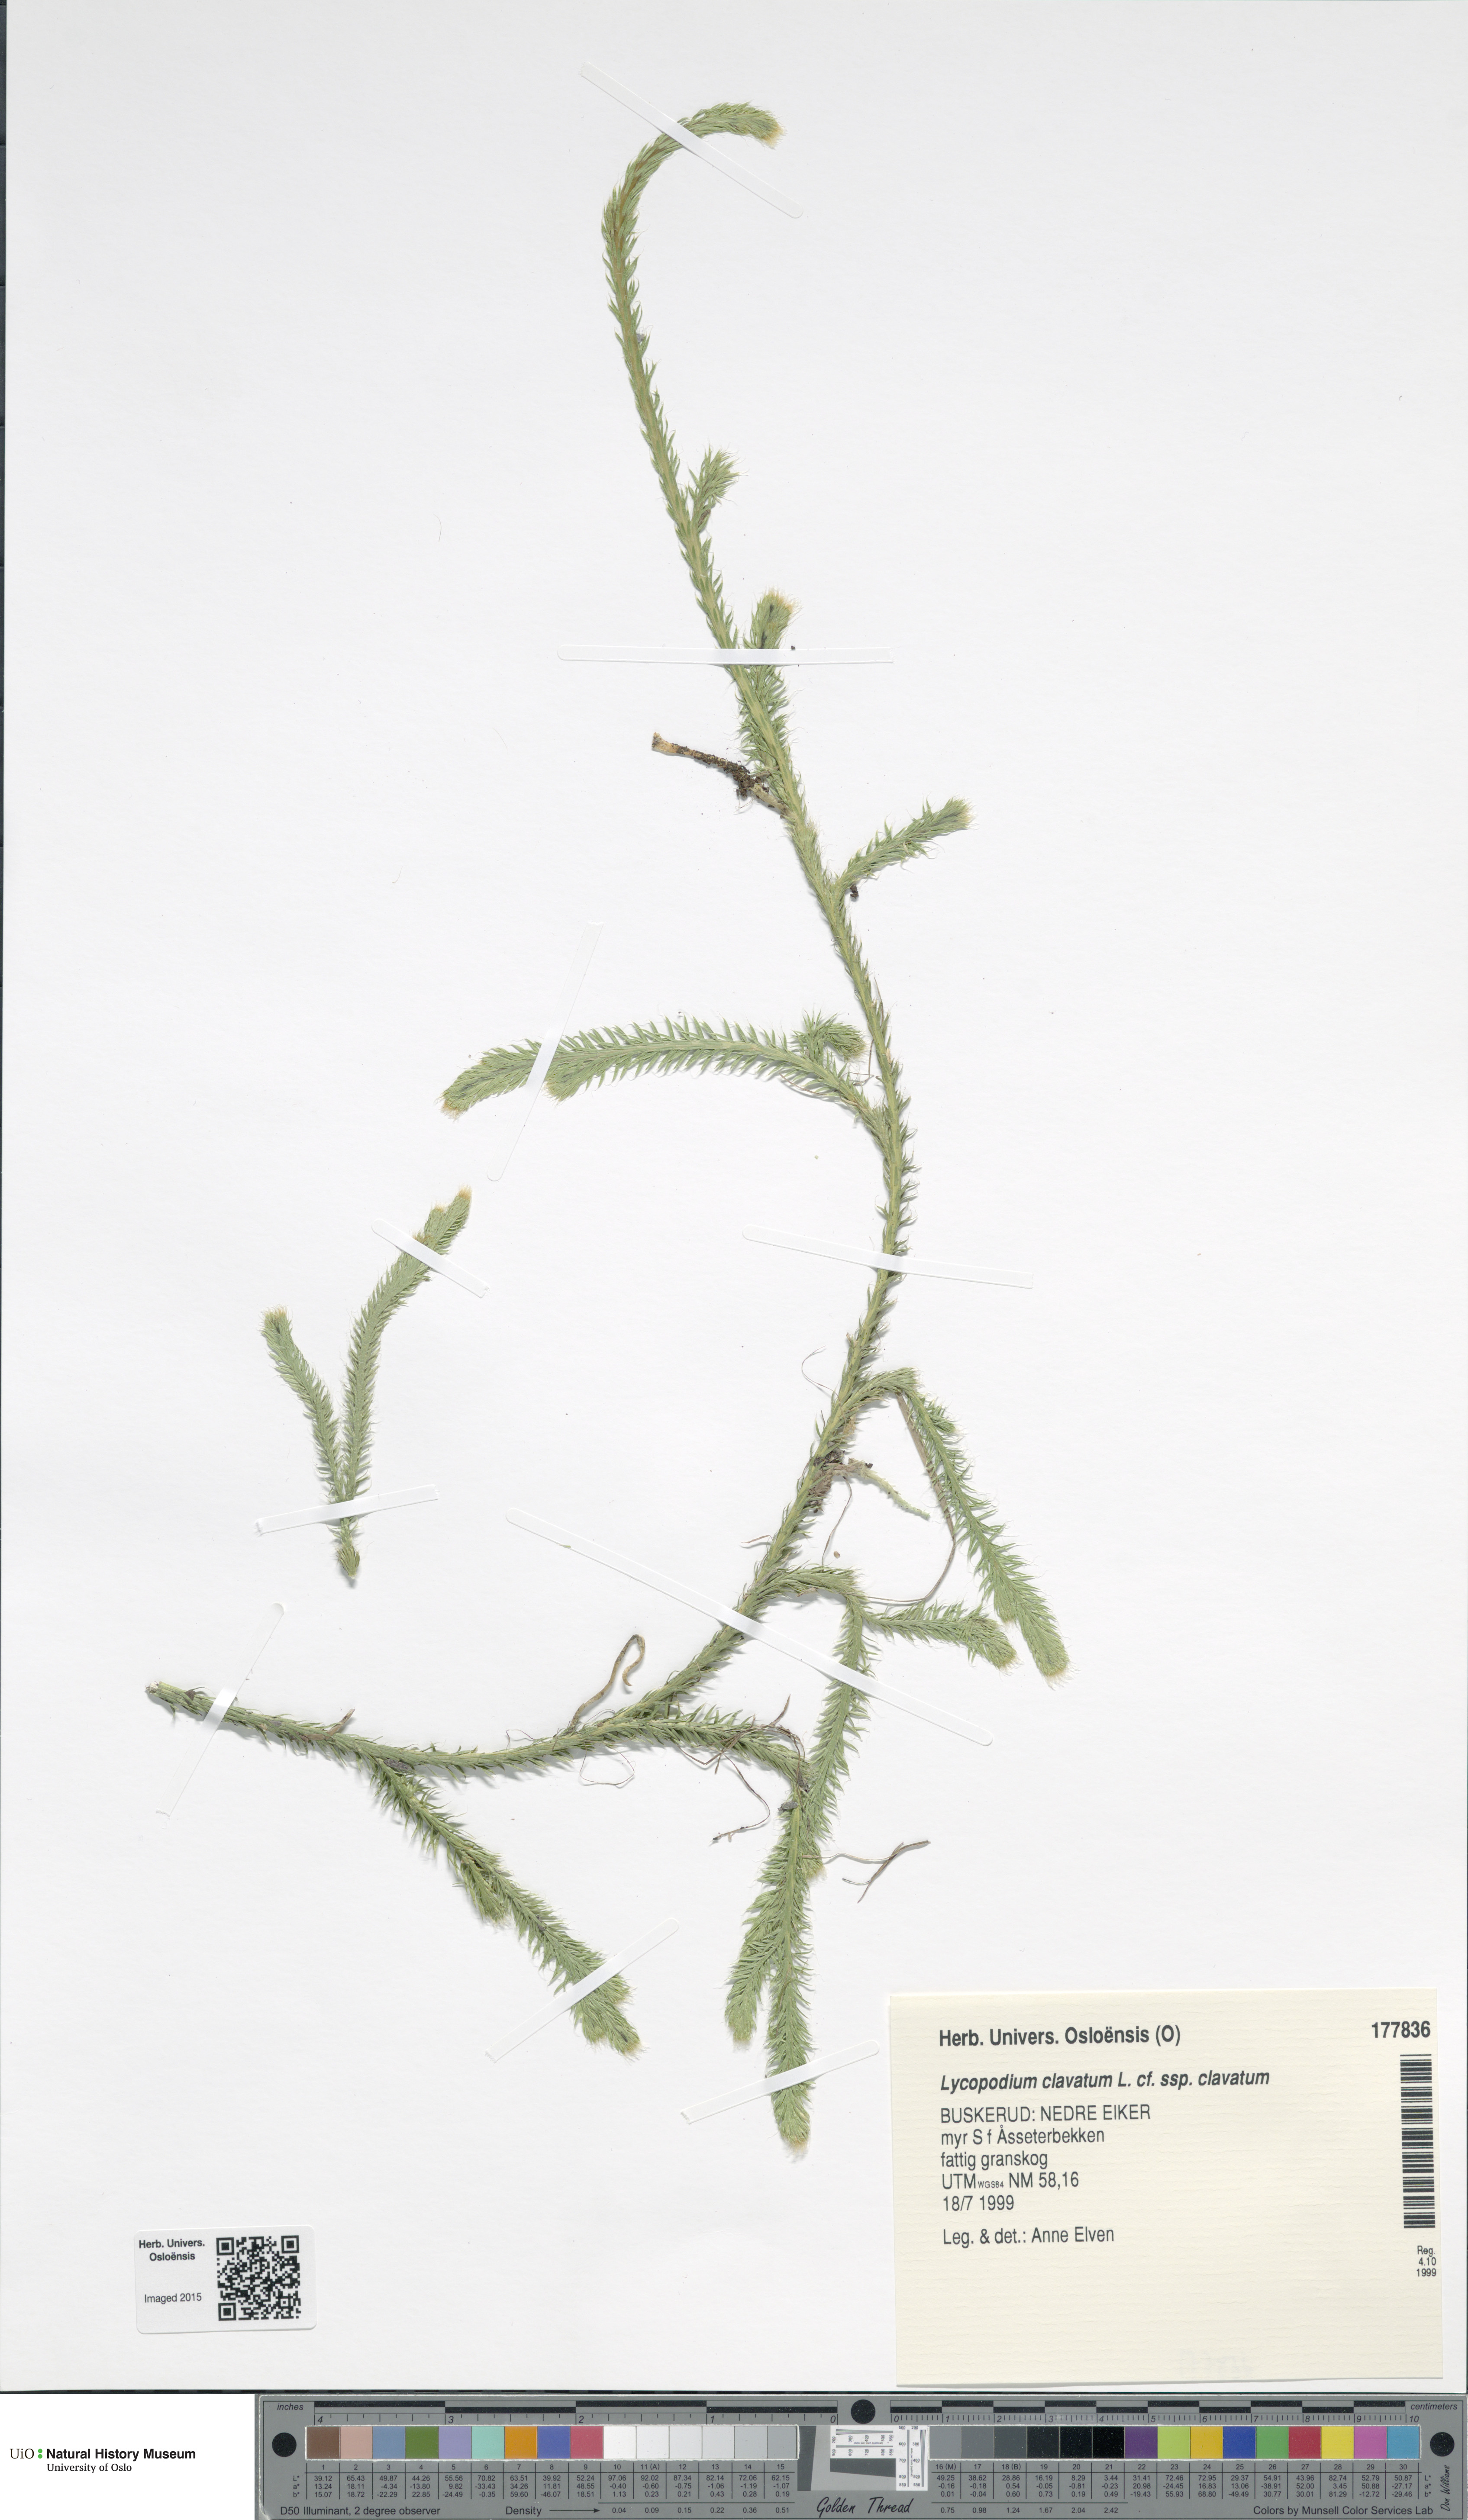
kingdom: Plantae
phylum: Tracheophyta
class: Lycopodiopsida
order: Lycopodiales
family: Lycopodiaceae
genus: Lycopodium
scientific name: Lycopodium clavatum
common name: Stag's-horn clubmoss
